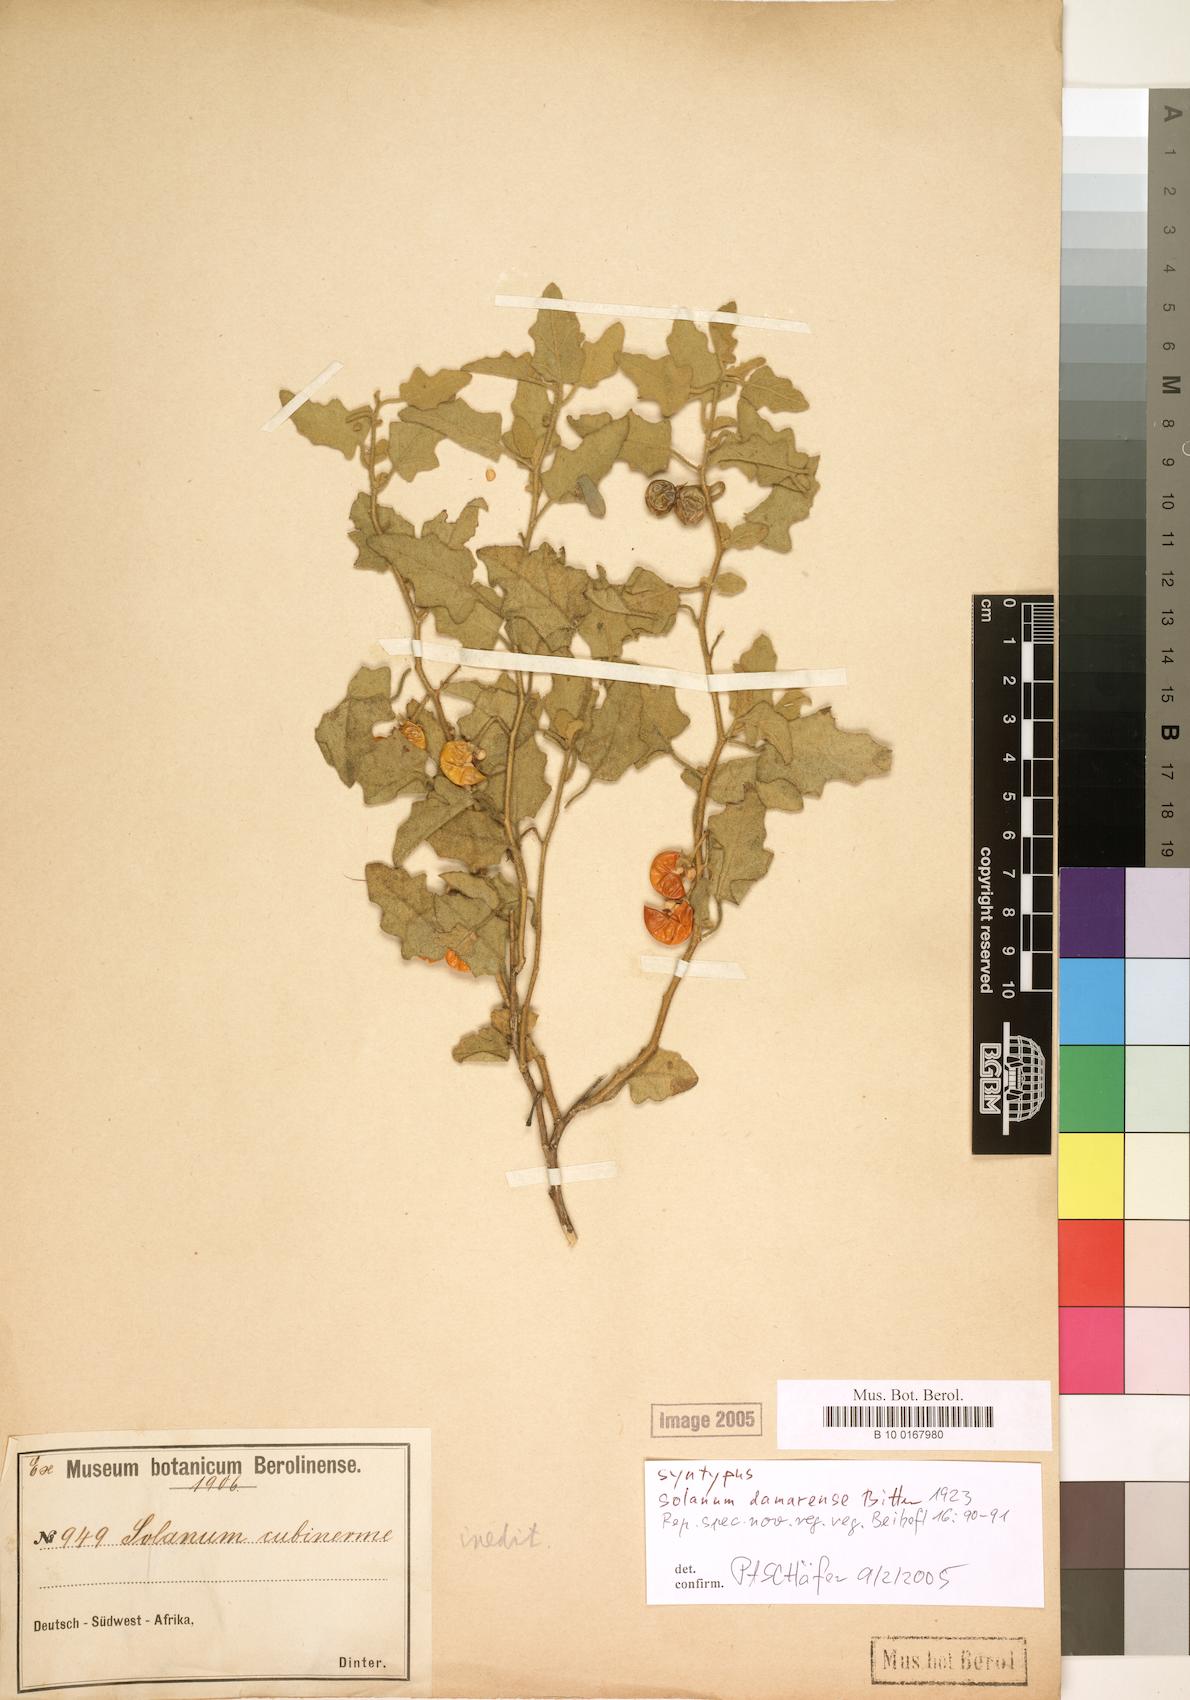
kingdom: Plantae
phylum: Tracheophyta
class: Magnoliopsida
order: Solanales
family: Solanaceae
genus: Solanum
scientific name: Solanum humile
